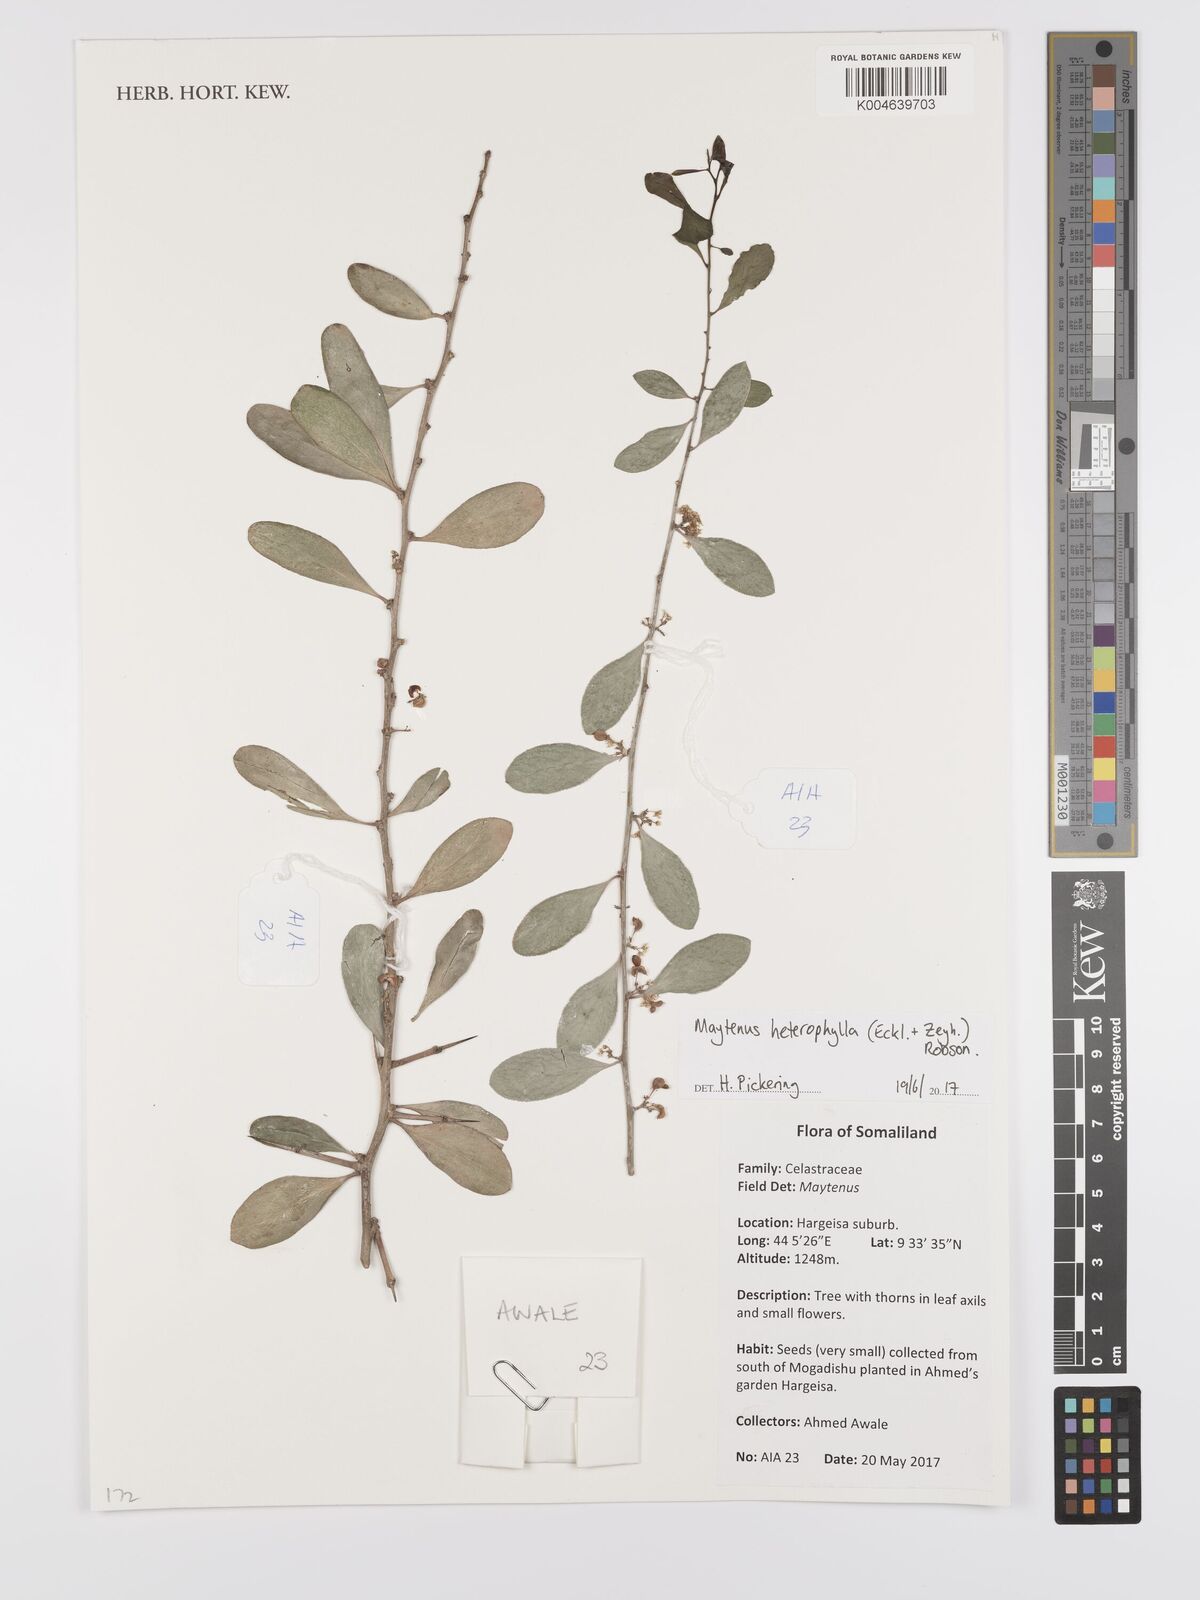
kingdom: Plantae
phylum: Tracheophyta
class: Magnoliopsida
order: Celastrales
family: Celastraceae
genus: Gymnosporia
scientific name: Gymnosporia heterophylla
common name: Angle-stem spikethorn
